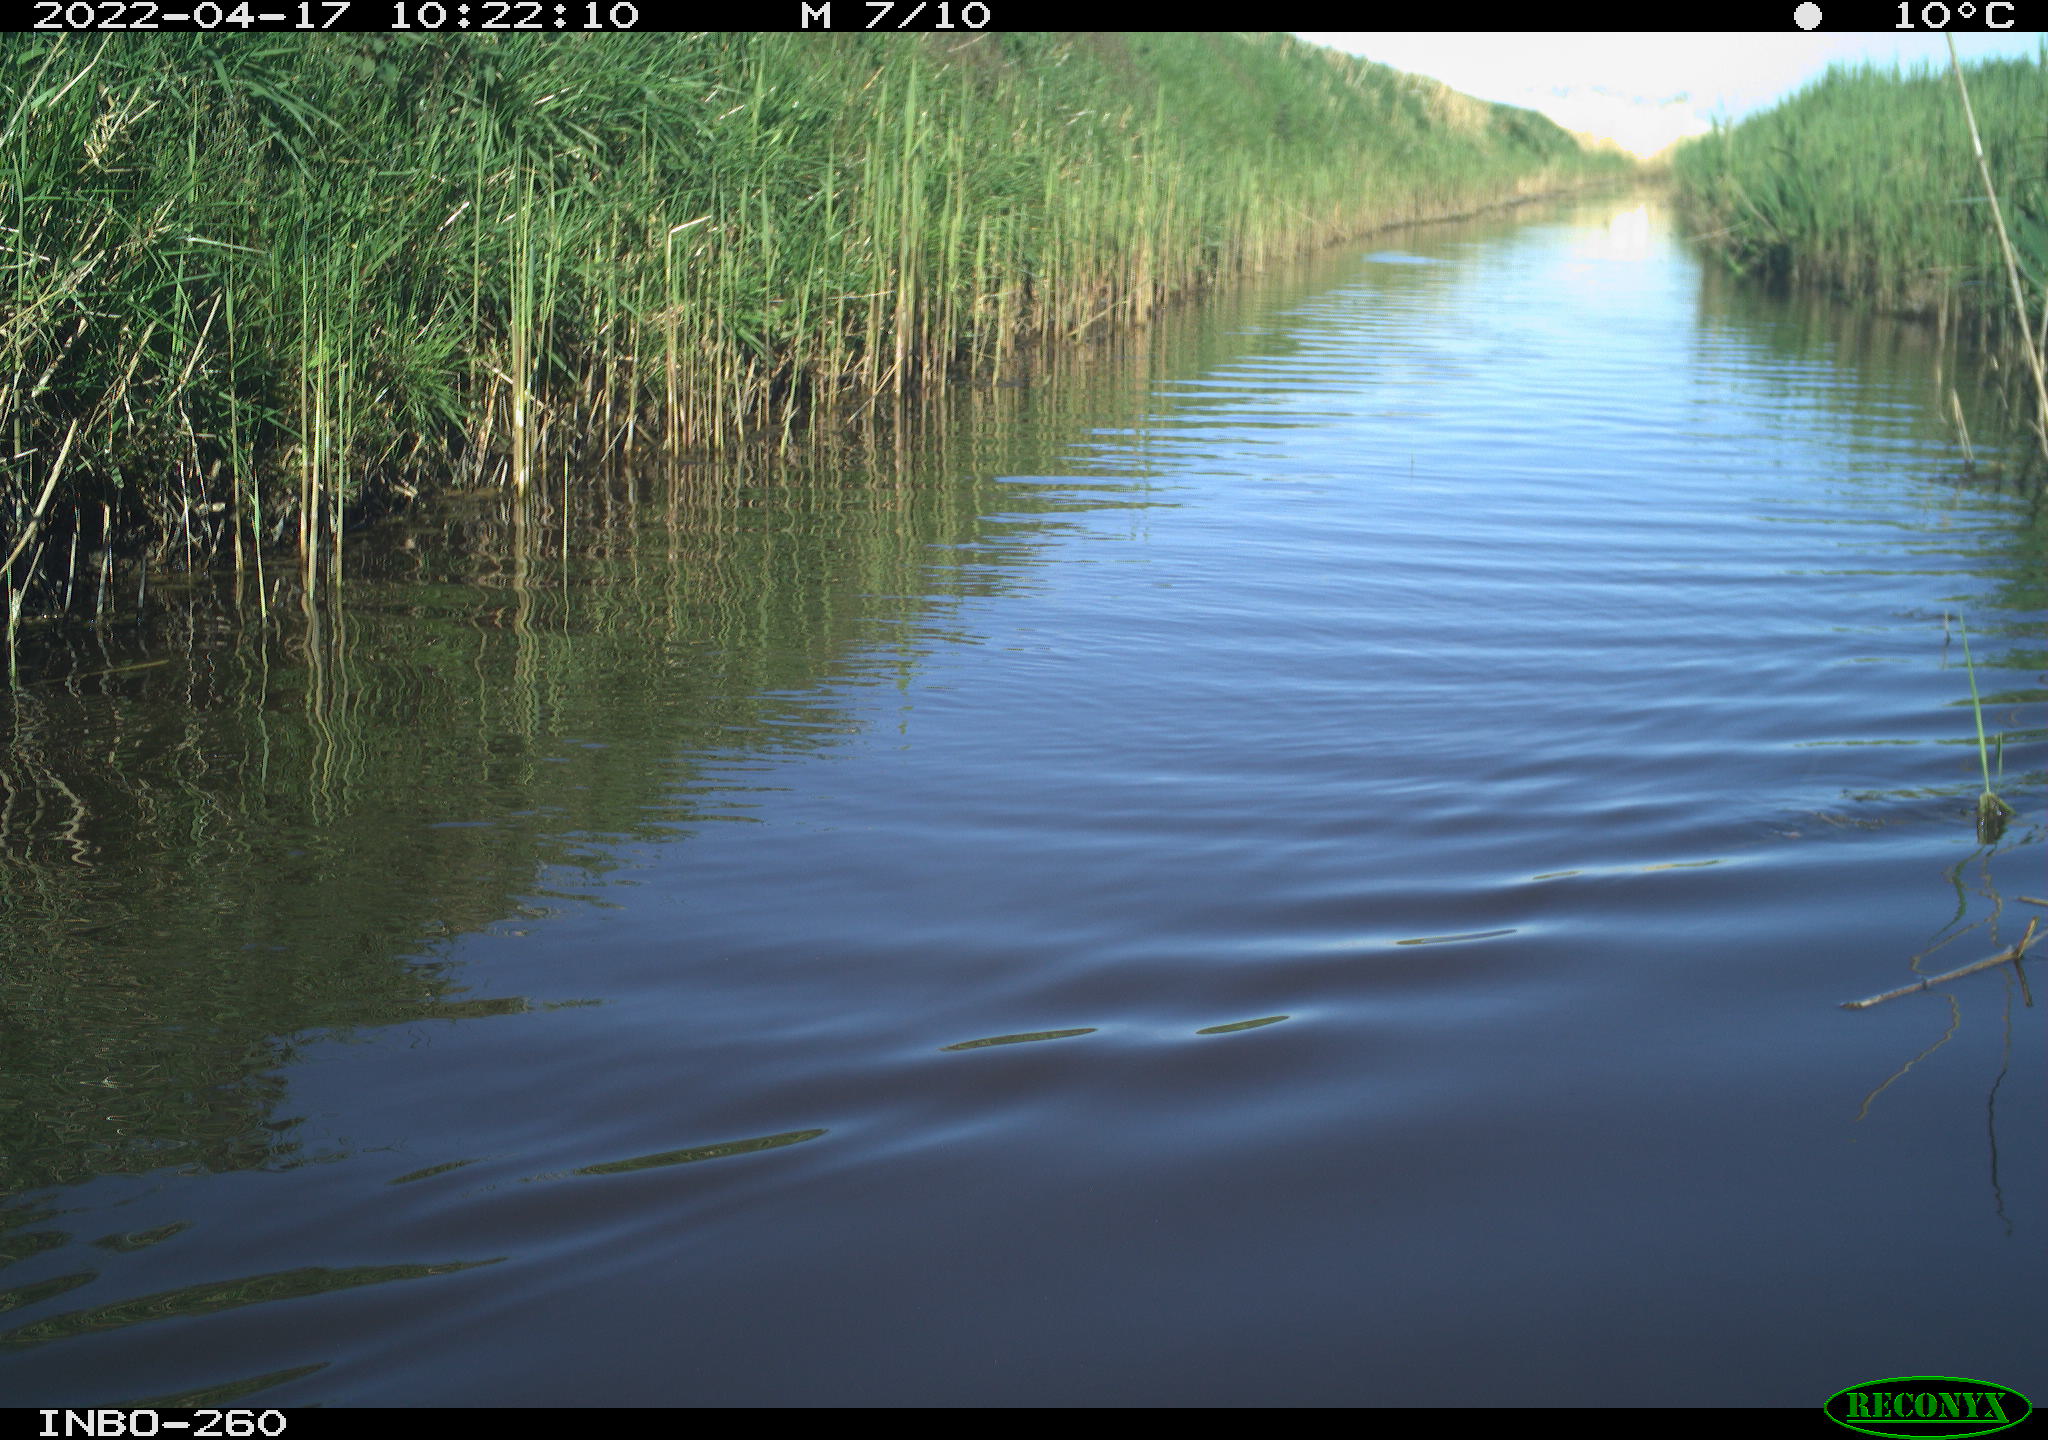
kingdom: Animalia
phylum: Chordata
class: Aves
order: Gruiformes
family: Rallidae
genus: Fulica
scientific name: Fulica atra
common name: Eurasian coot
